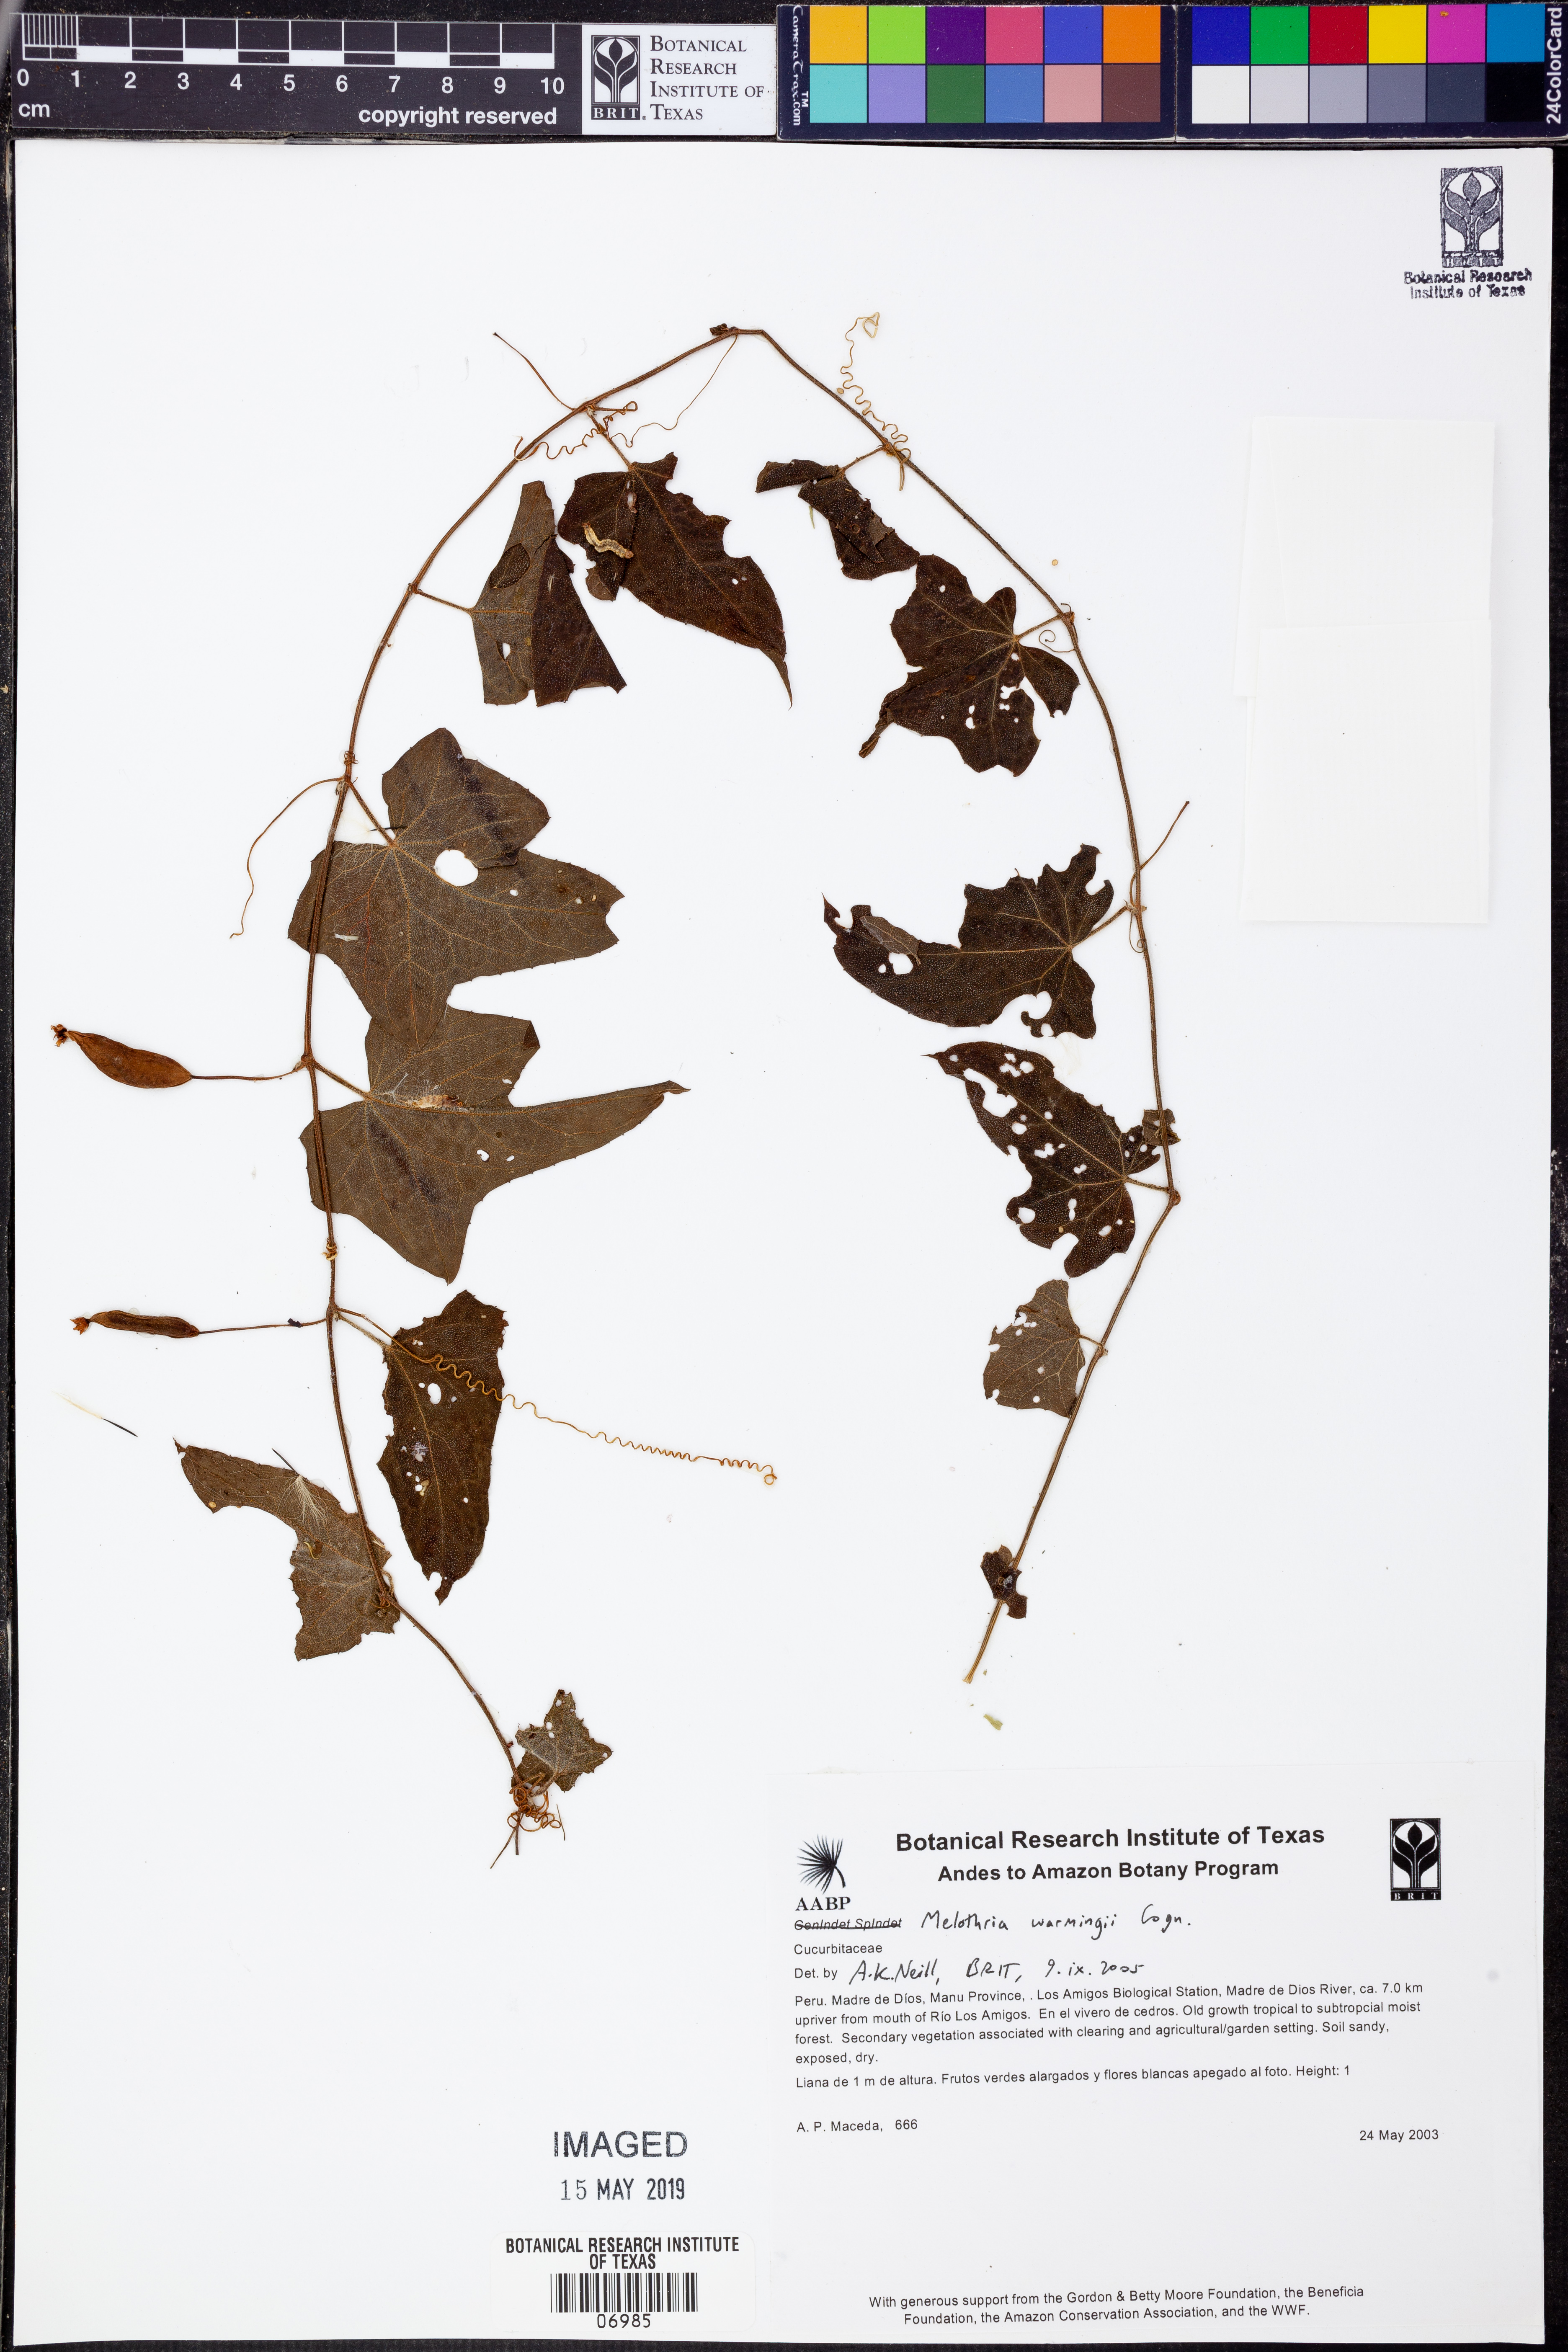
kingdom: Plantae
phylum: Tracheophyta
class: Magnoliopsida
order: Cucurbitales
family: Cucurbitaceae
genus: Melothria
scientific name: Melothria
